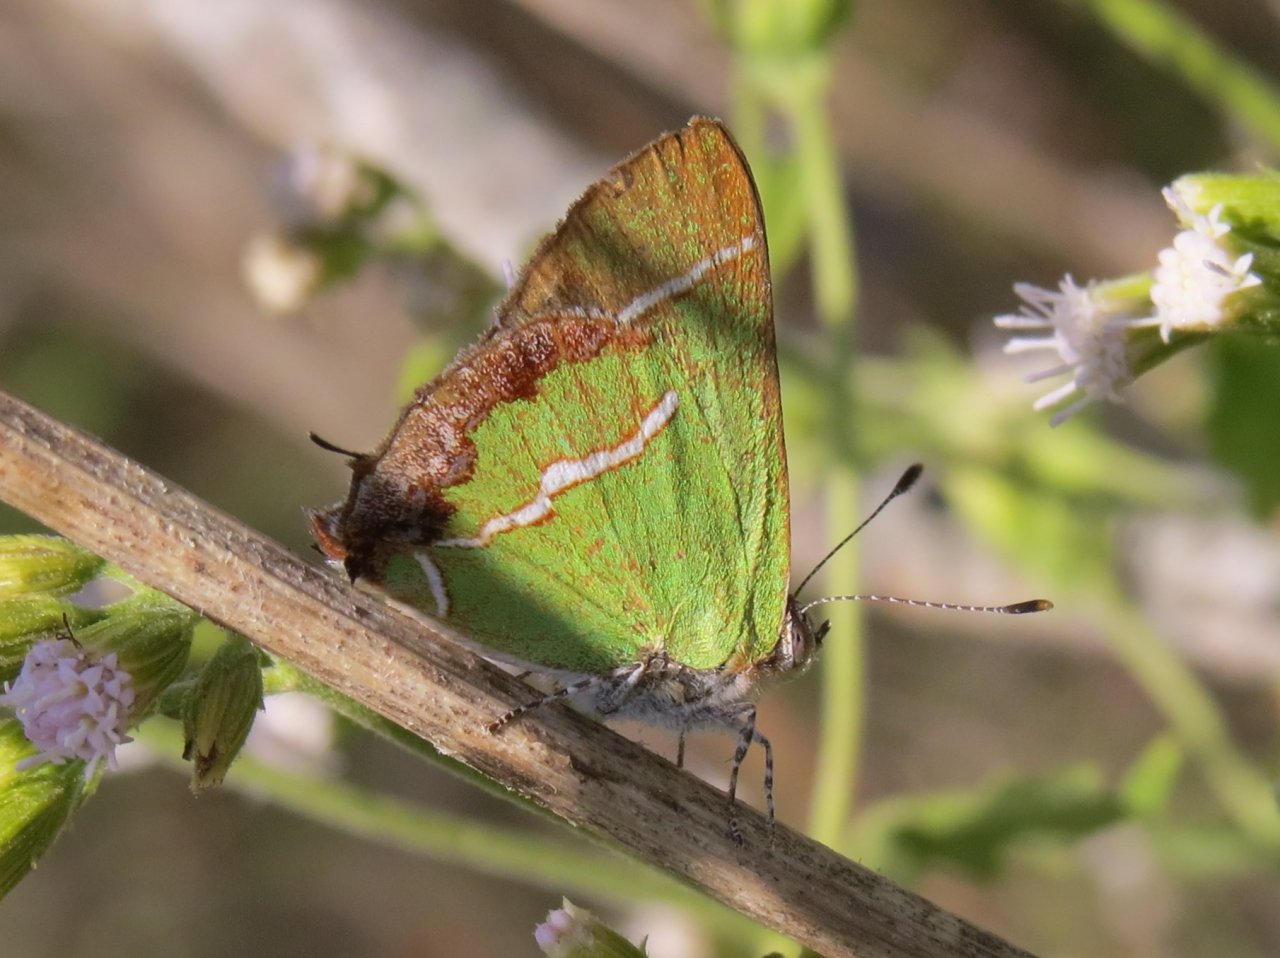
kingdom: Animalia
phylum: Arthropoda
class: Insecta
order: Lepidoptera
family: Lycaenidae
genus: Chlorostrymon
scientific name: Chlorostrymon simaethis
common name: Silver-banded Hairstreak
